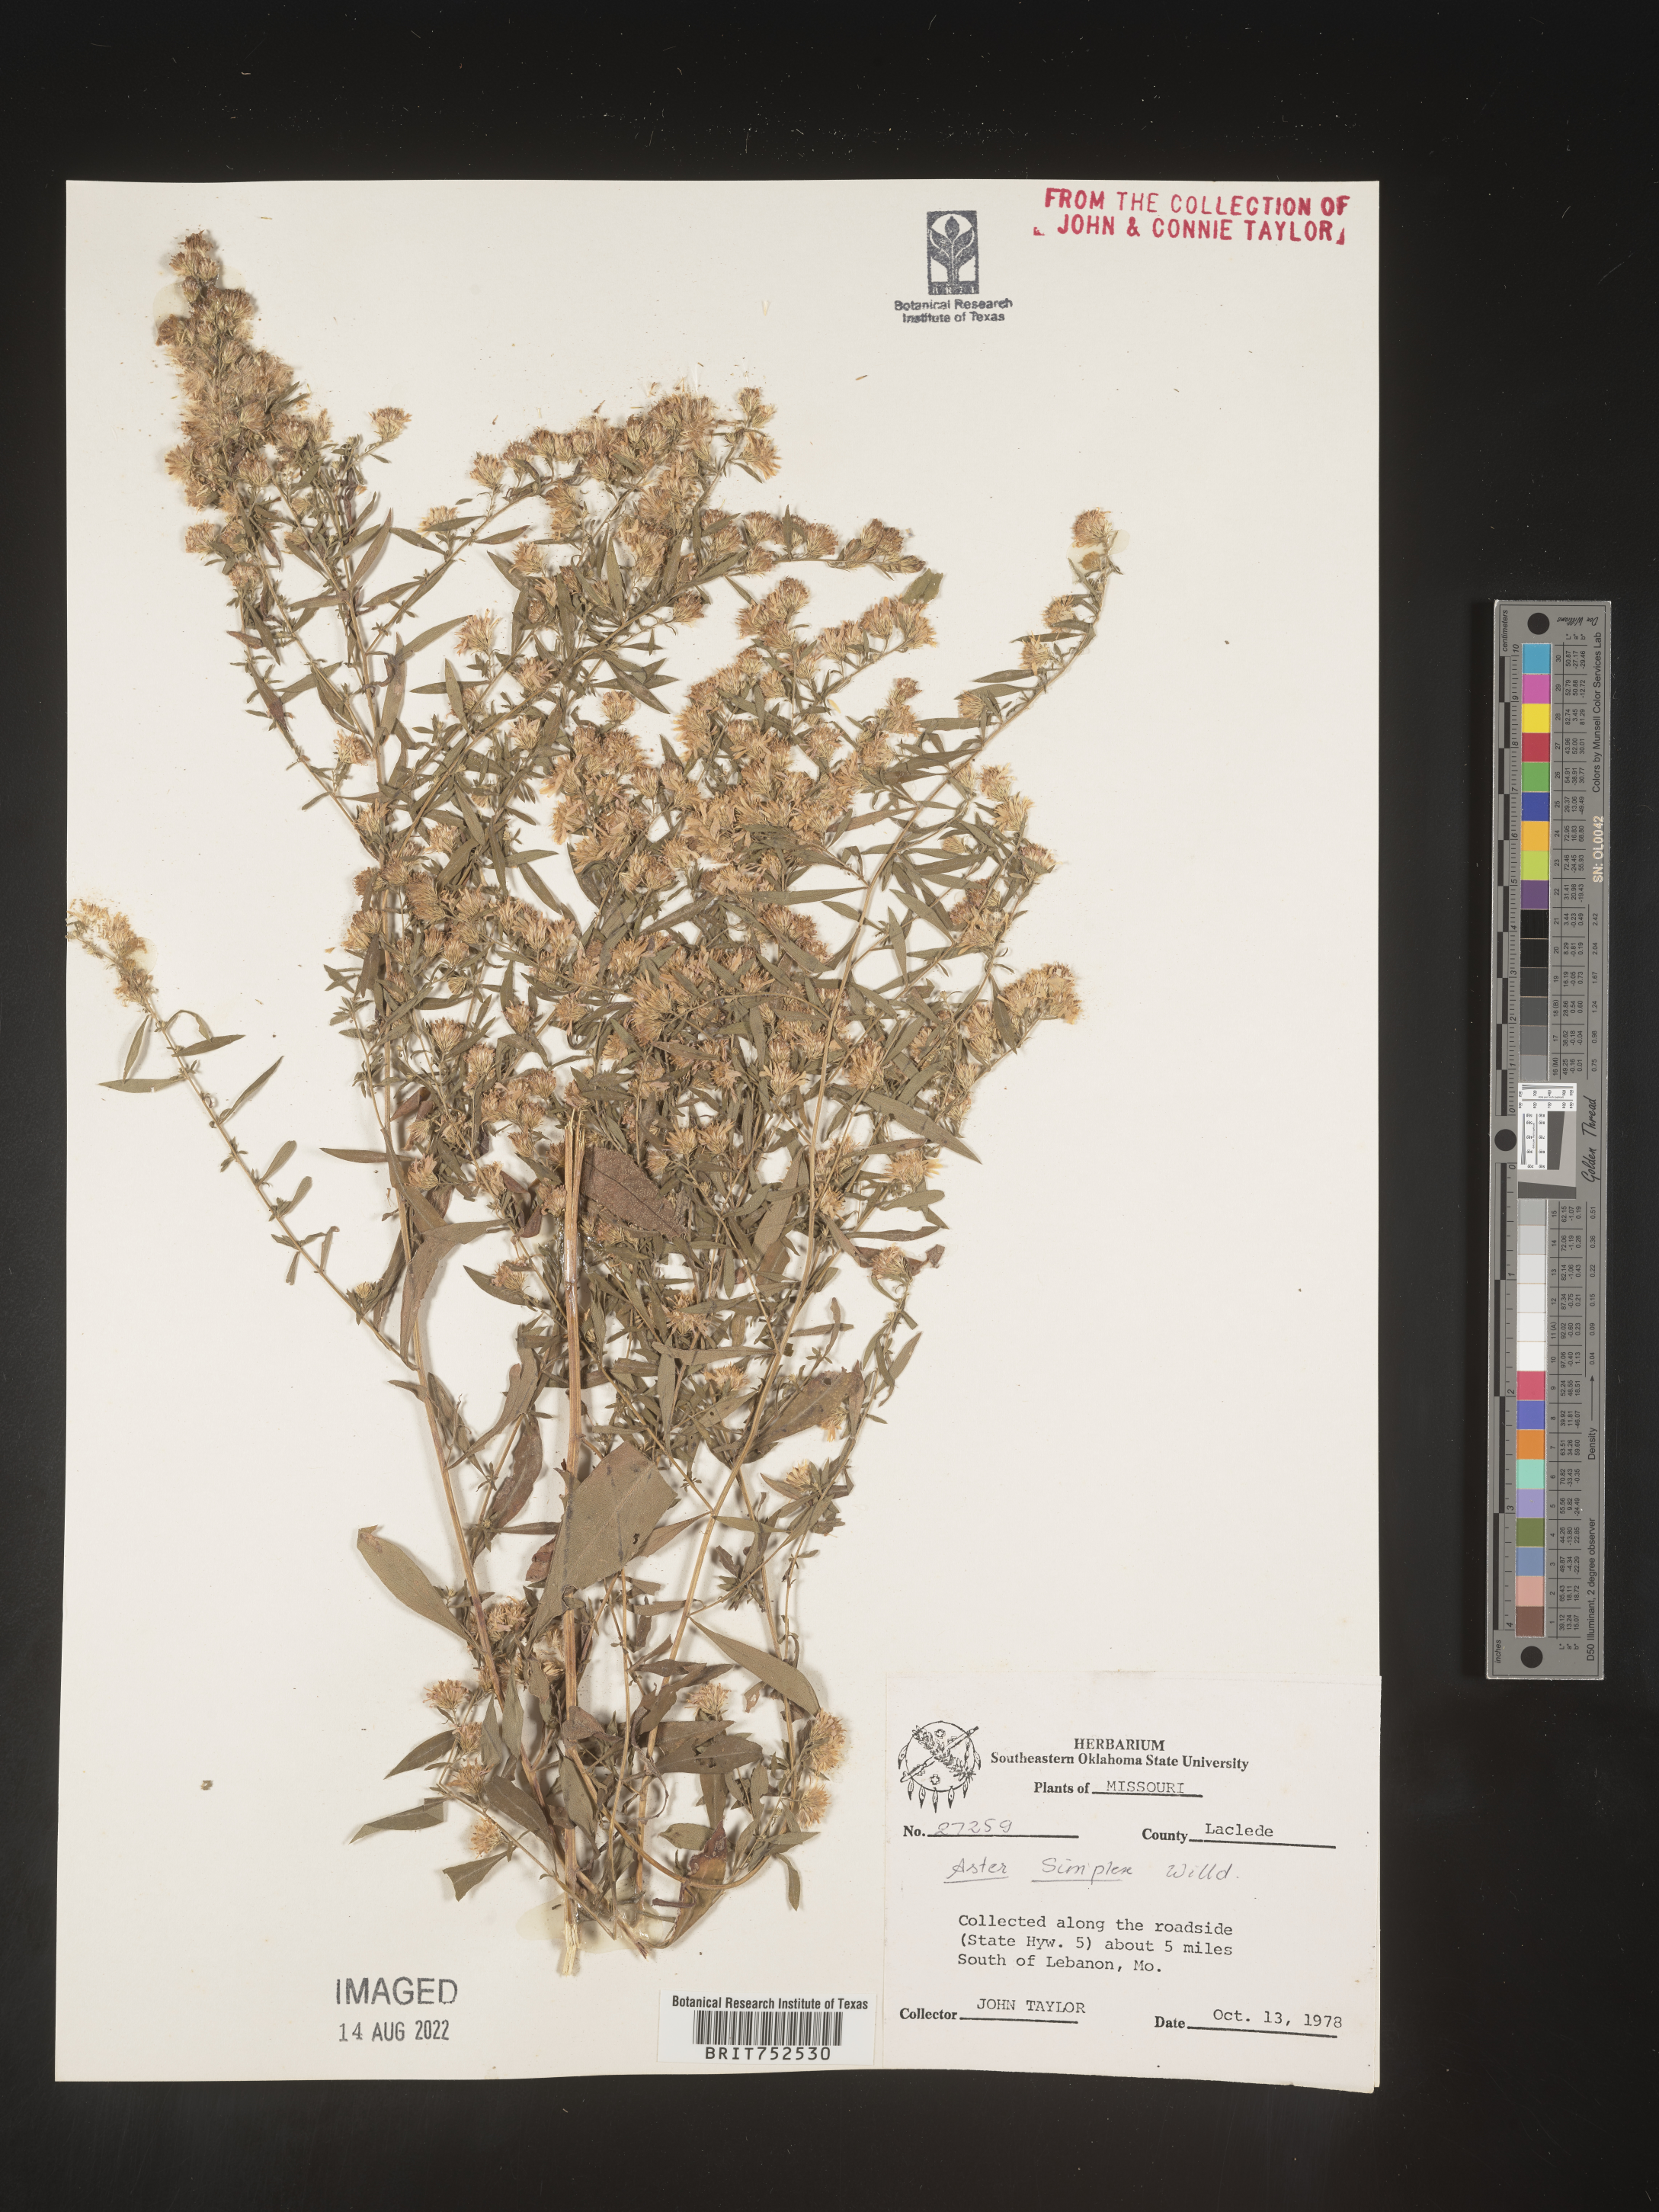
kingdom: Plantae
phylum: Tracheophyta
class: Magnoliopsida
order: Asterales
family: Asteraceae
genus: Symphyotrichum
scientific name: Symphyotrichum lanceolatum
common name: Panicled aster
